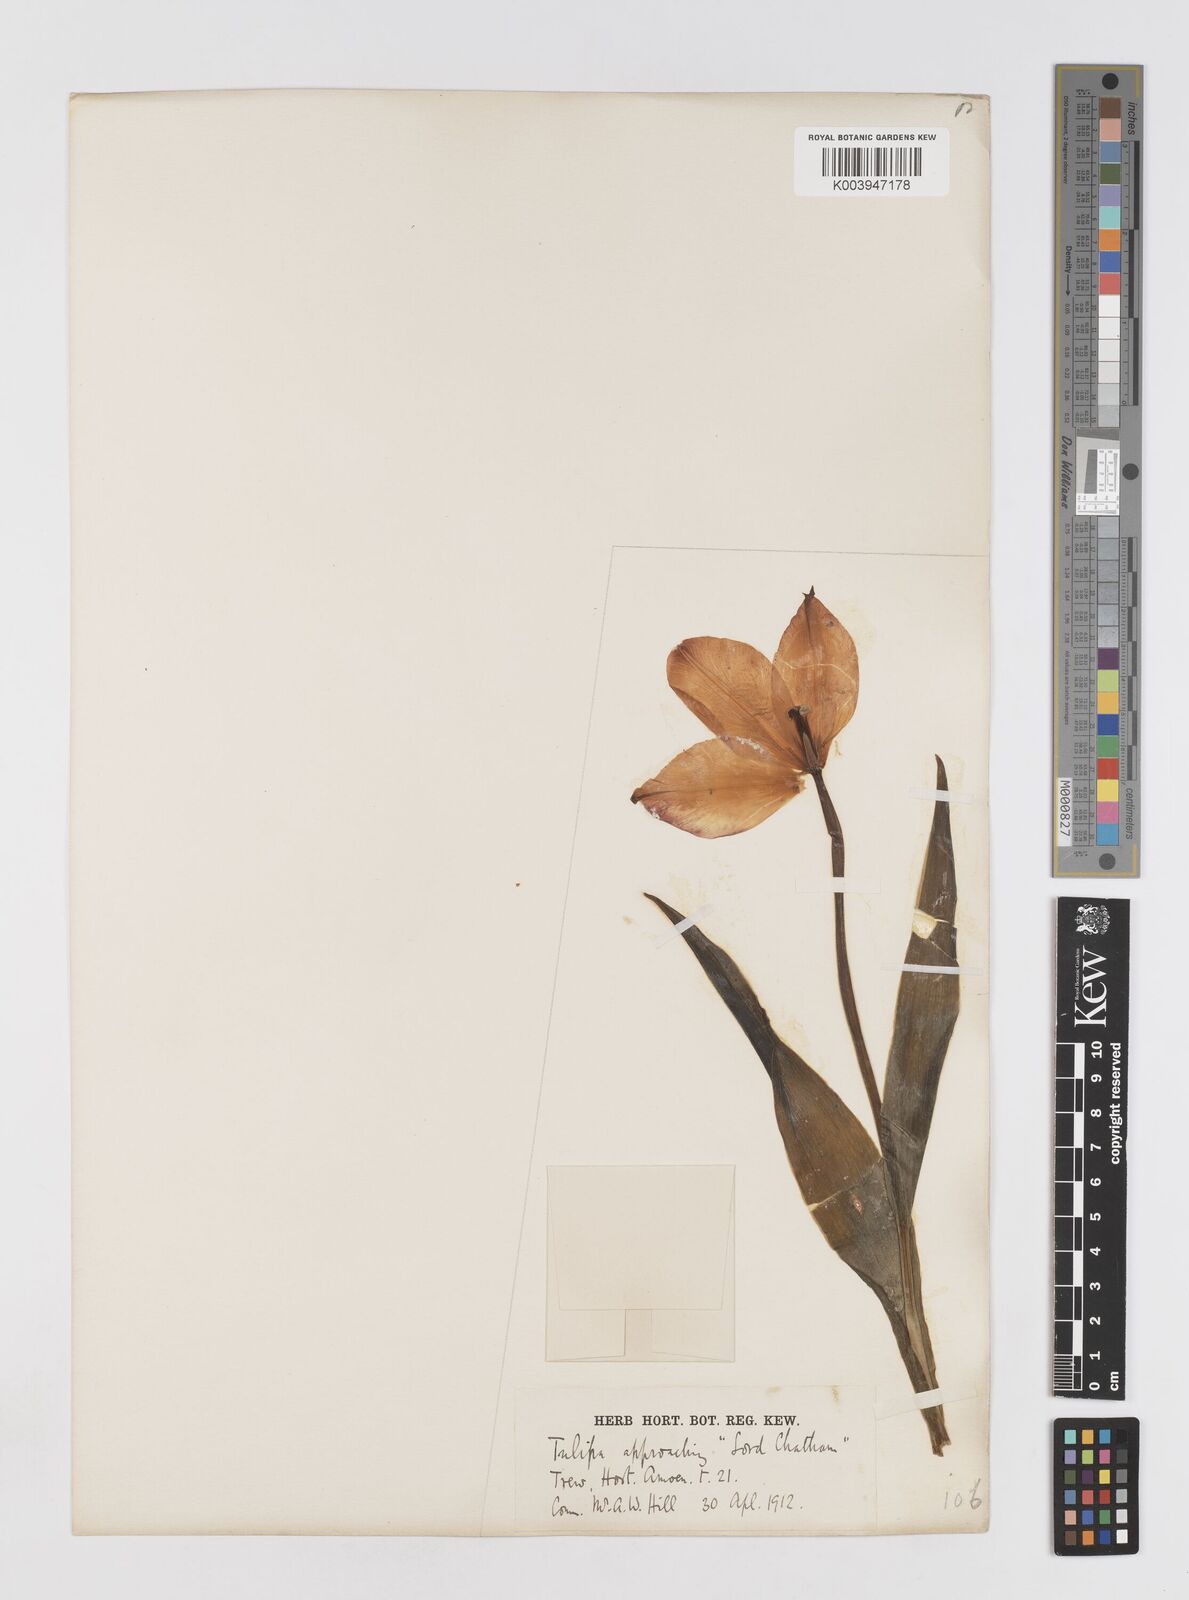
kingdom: Plantae
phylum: Tracheophyta
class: Liliopsida
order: Liliales
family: Liliaceae
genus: Tulipa
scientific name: Tulipa gesneriana
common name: Garden tulip
